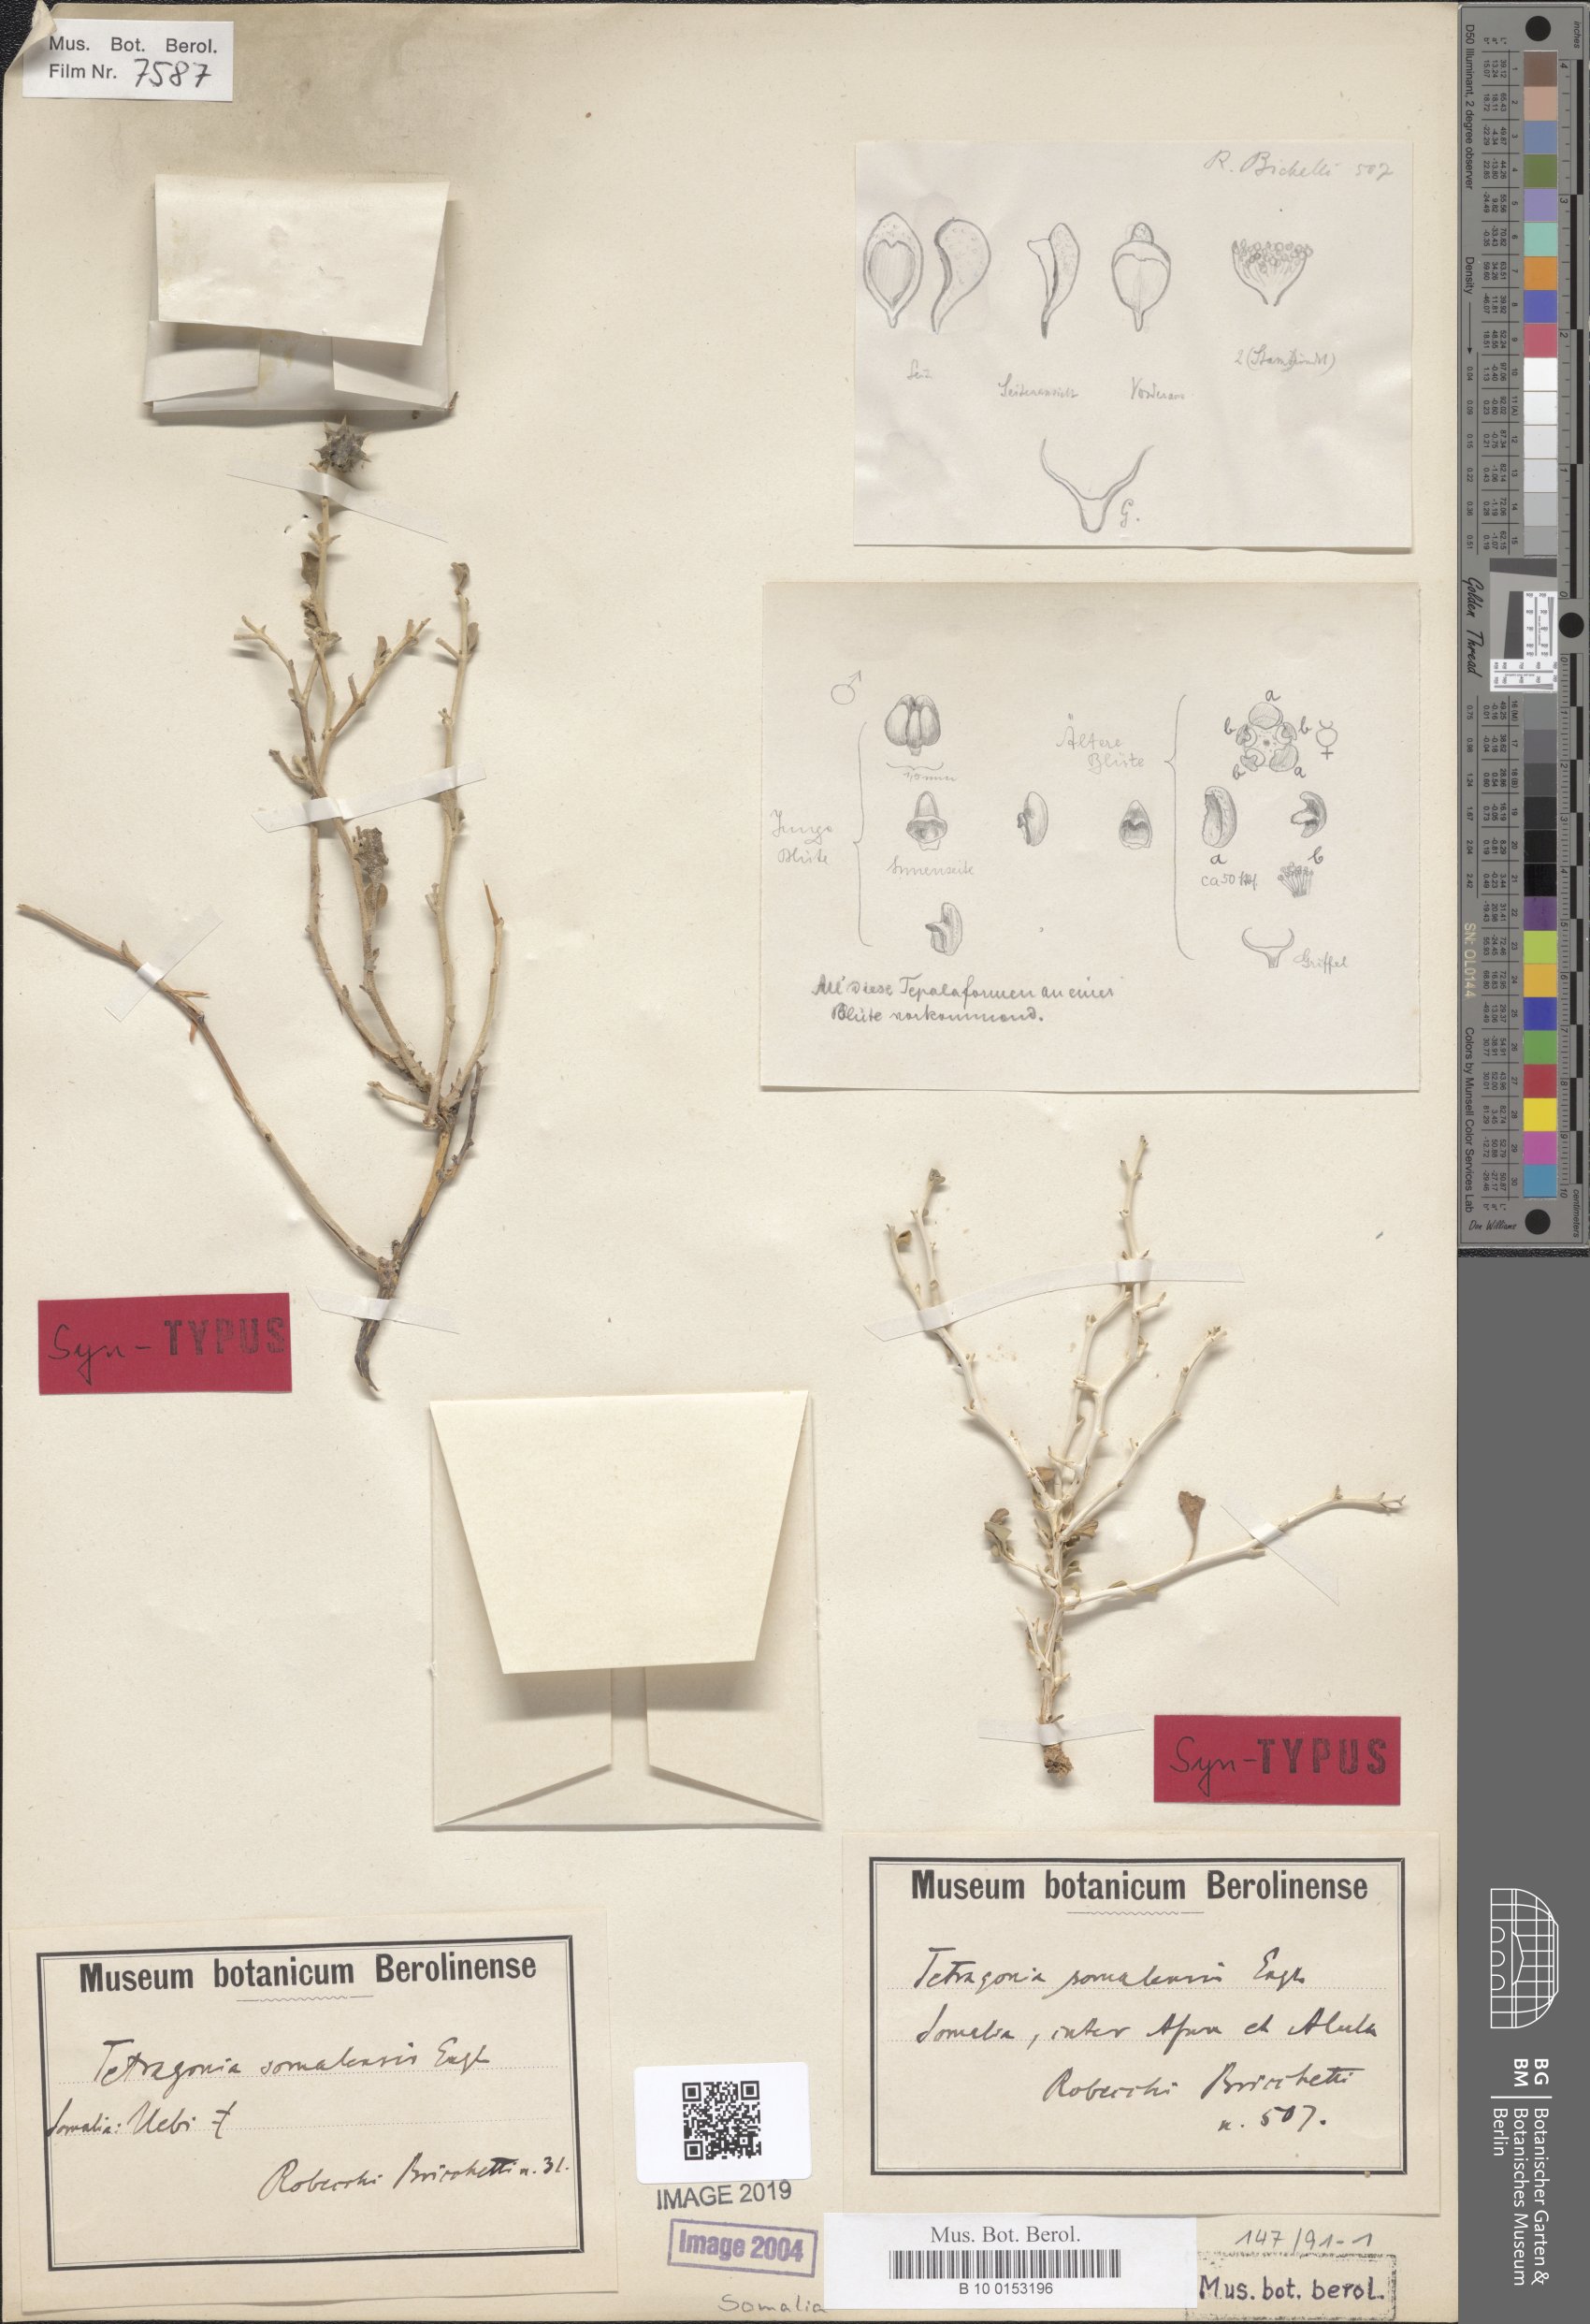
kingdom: Plantae
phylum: Tracheophyta
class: Magnoliopsida
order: Caryophyllales
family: Aizoaceae
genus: Tribulocarpus
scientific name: Tribulocarpus somalensis
